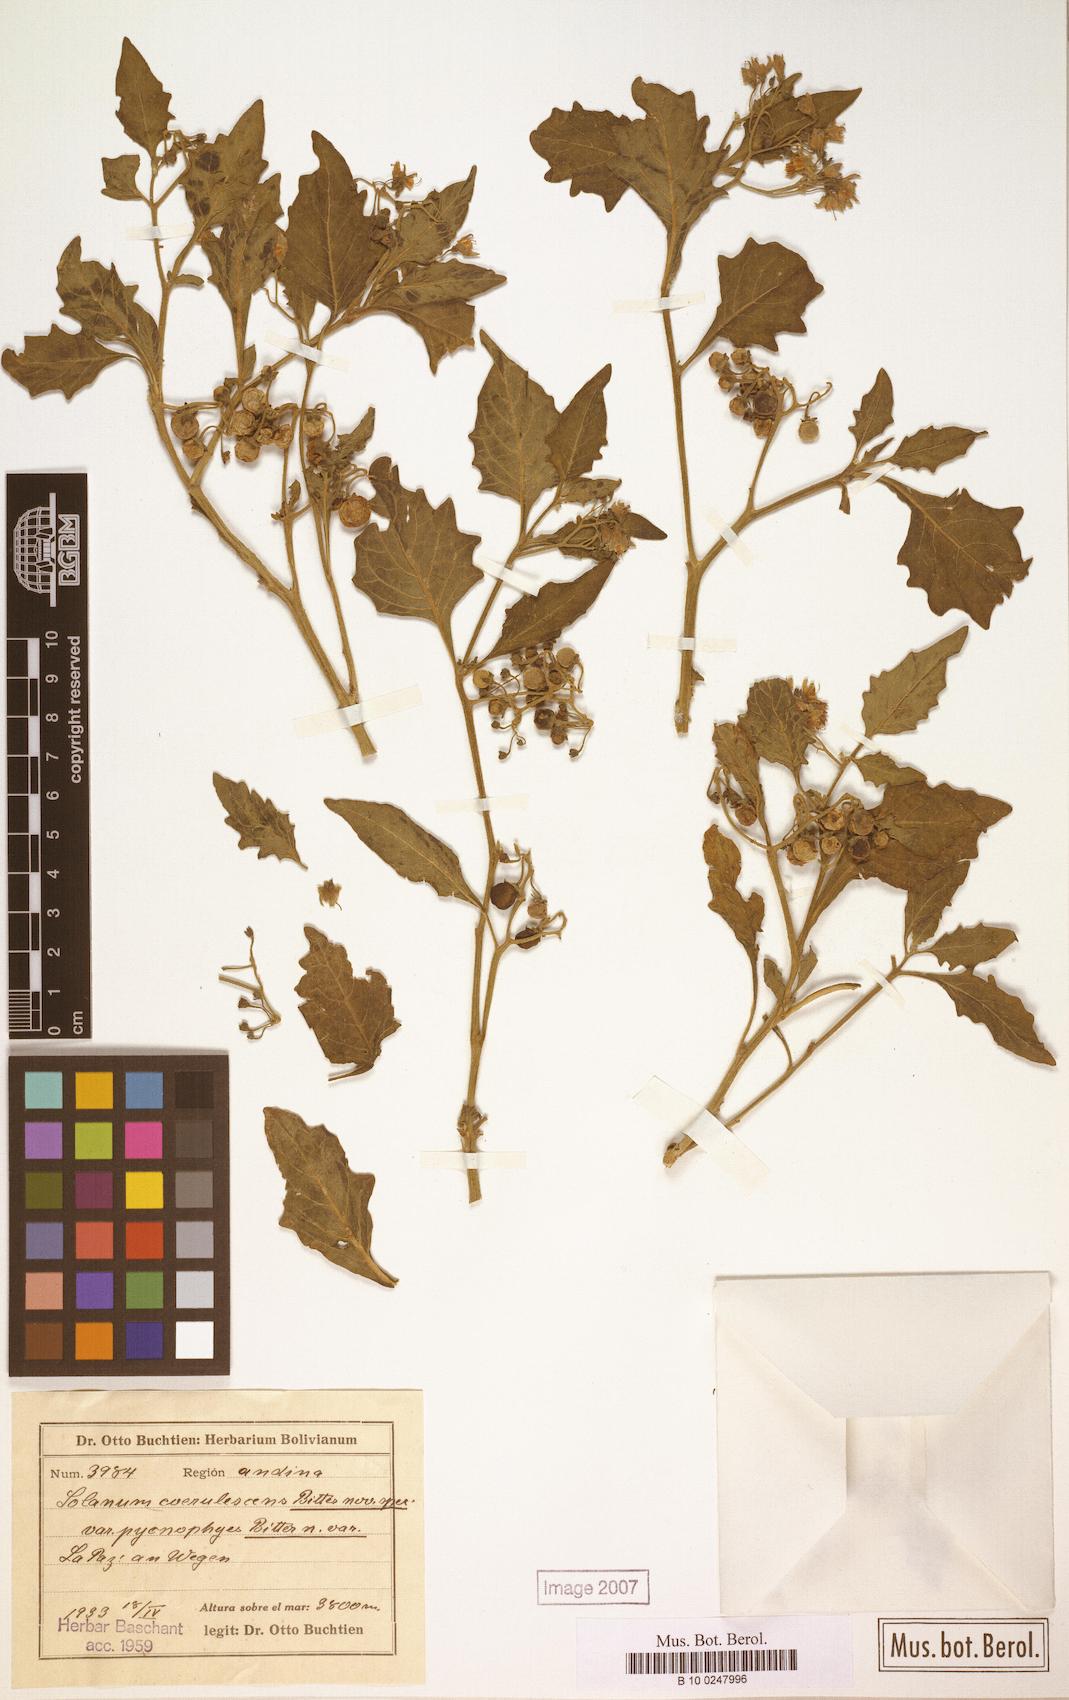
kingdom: Plantae
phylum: Tracheophyta
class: Magnoliopsida
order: Solanales
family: Solanaceae
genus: Solanum
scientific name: Solanum pentlandii
